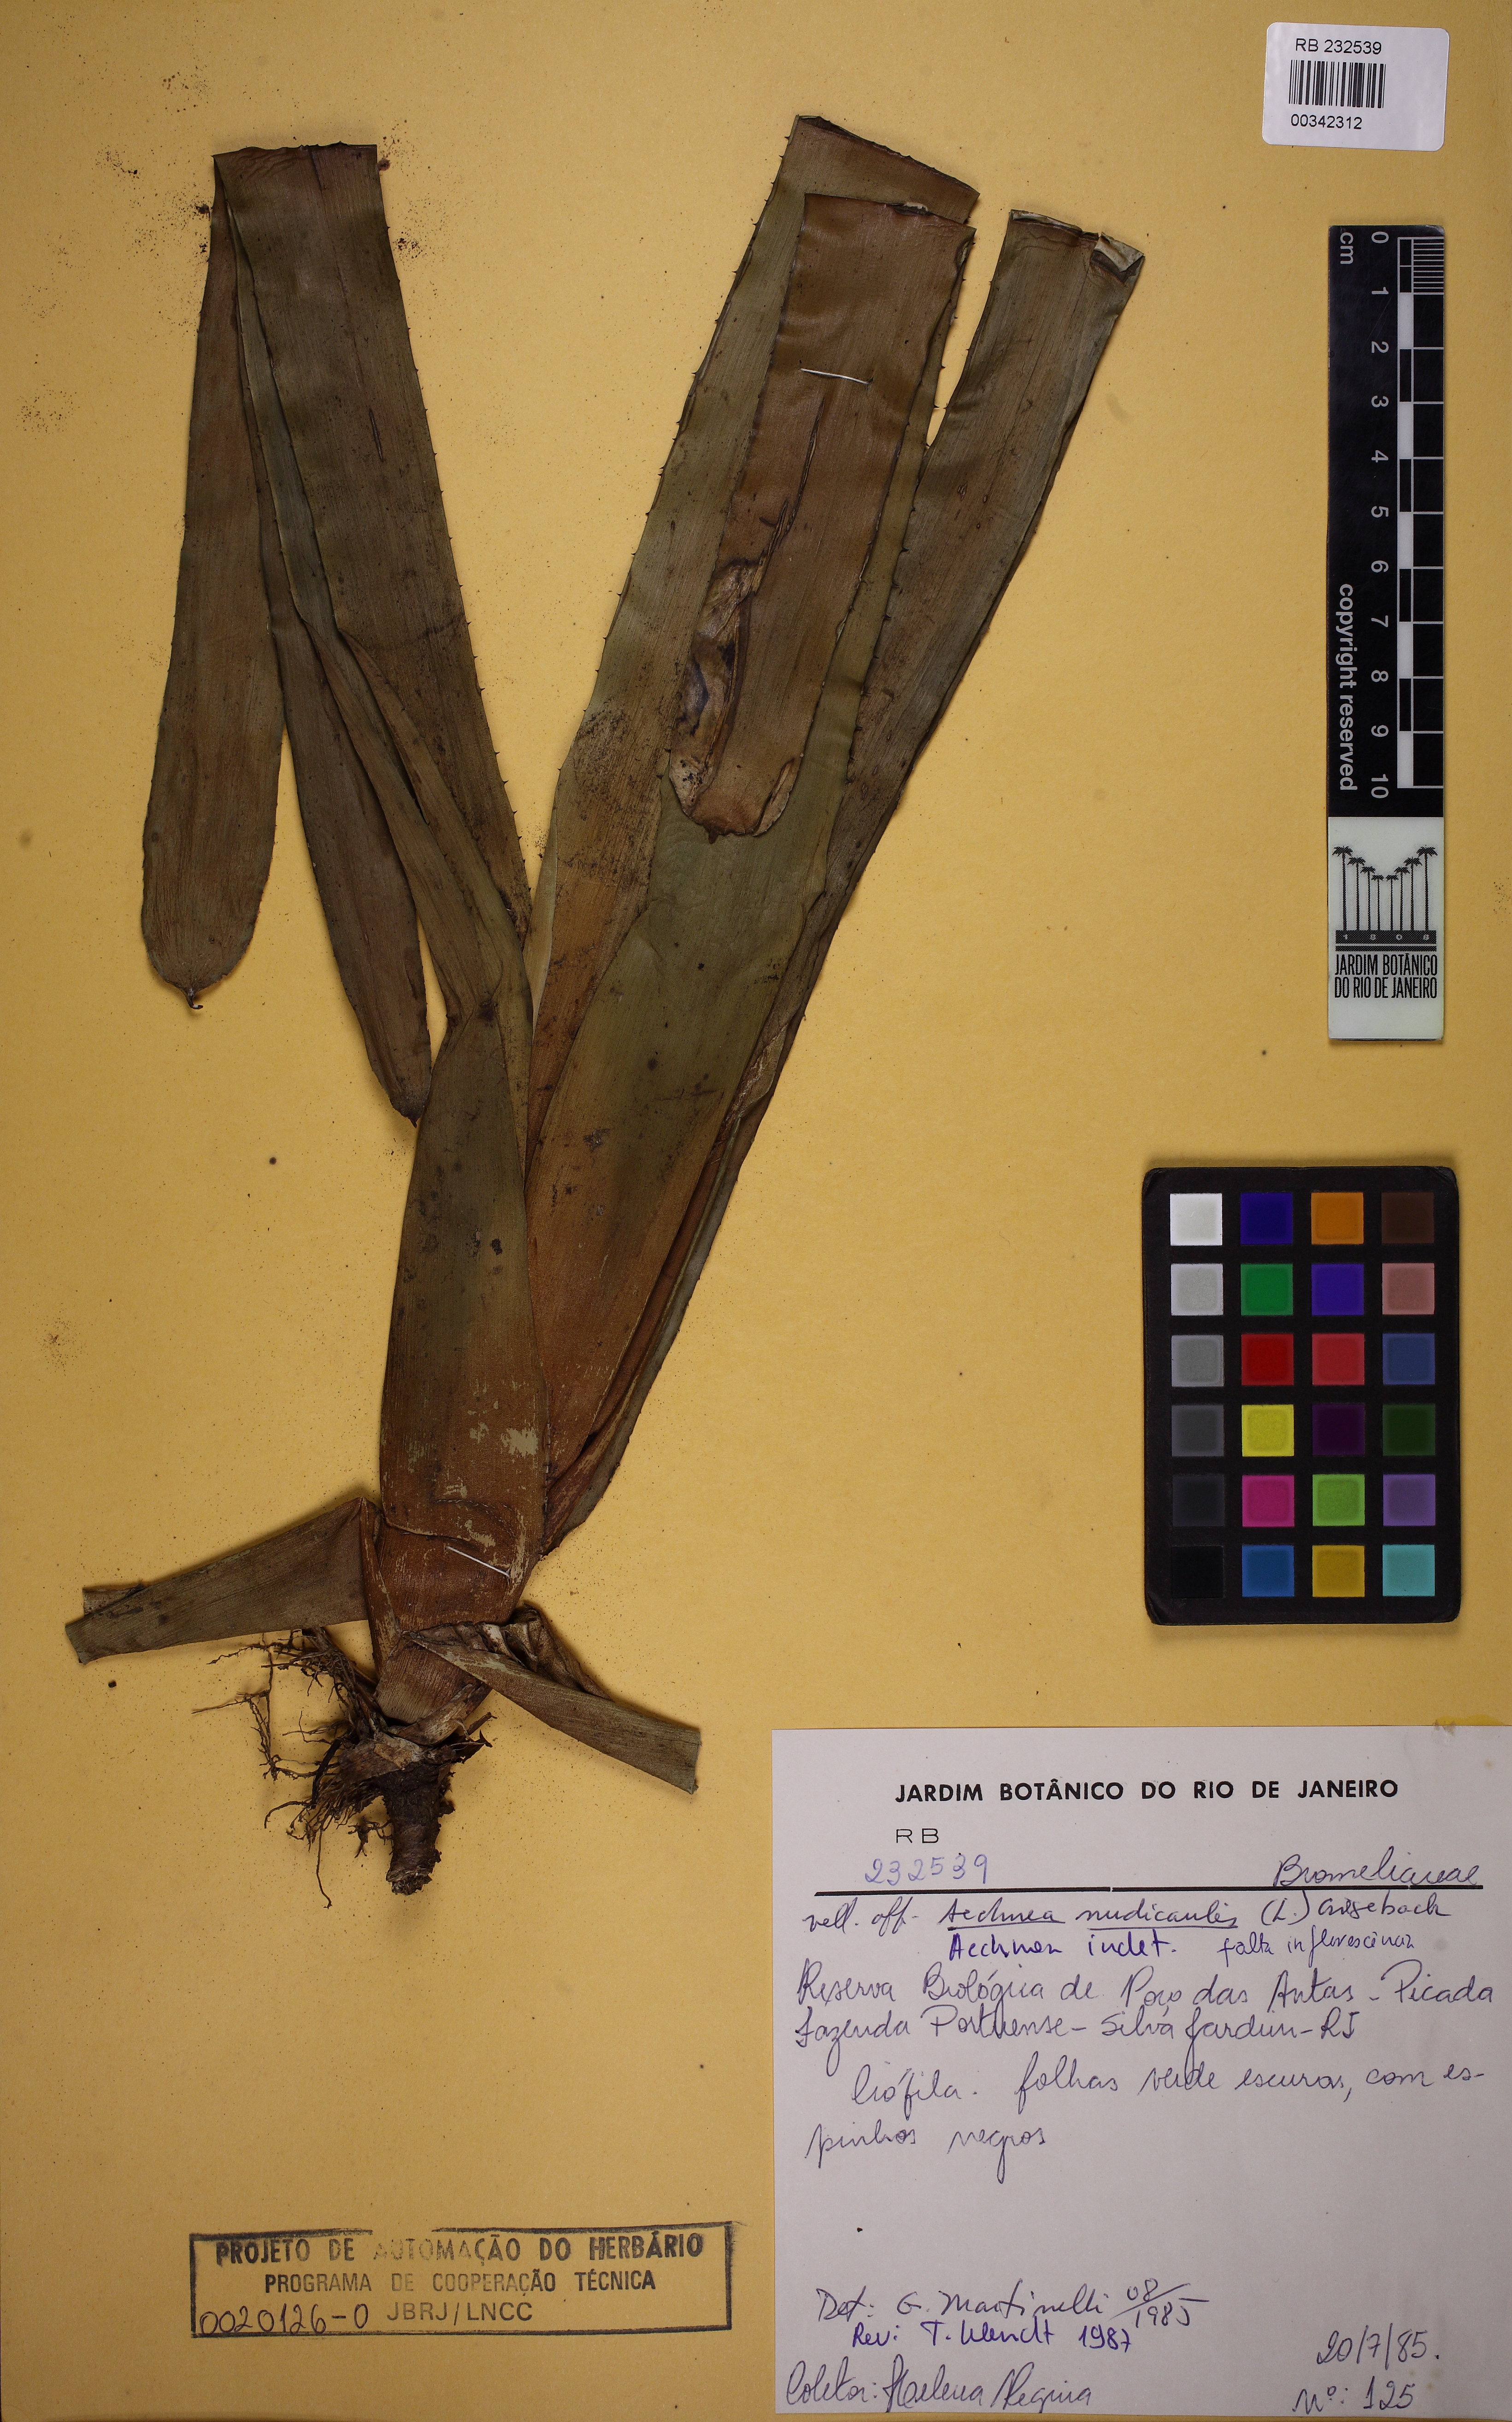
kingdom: Plantae
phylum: Tracheophyta
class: Liliopsida
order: Poales
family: Bromeliaceae
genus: Aechmea
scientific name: Aechmea
